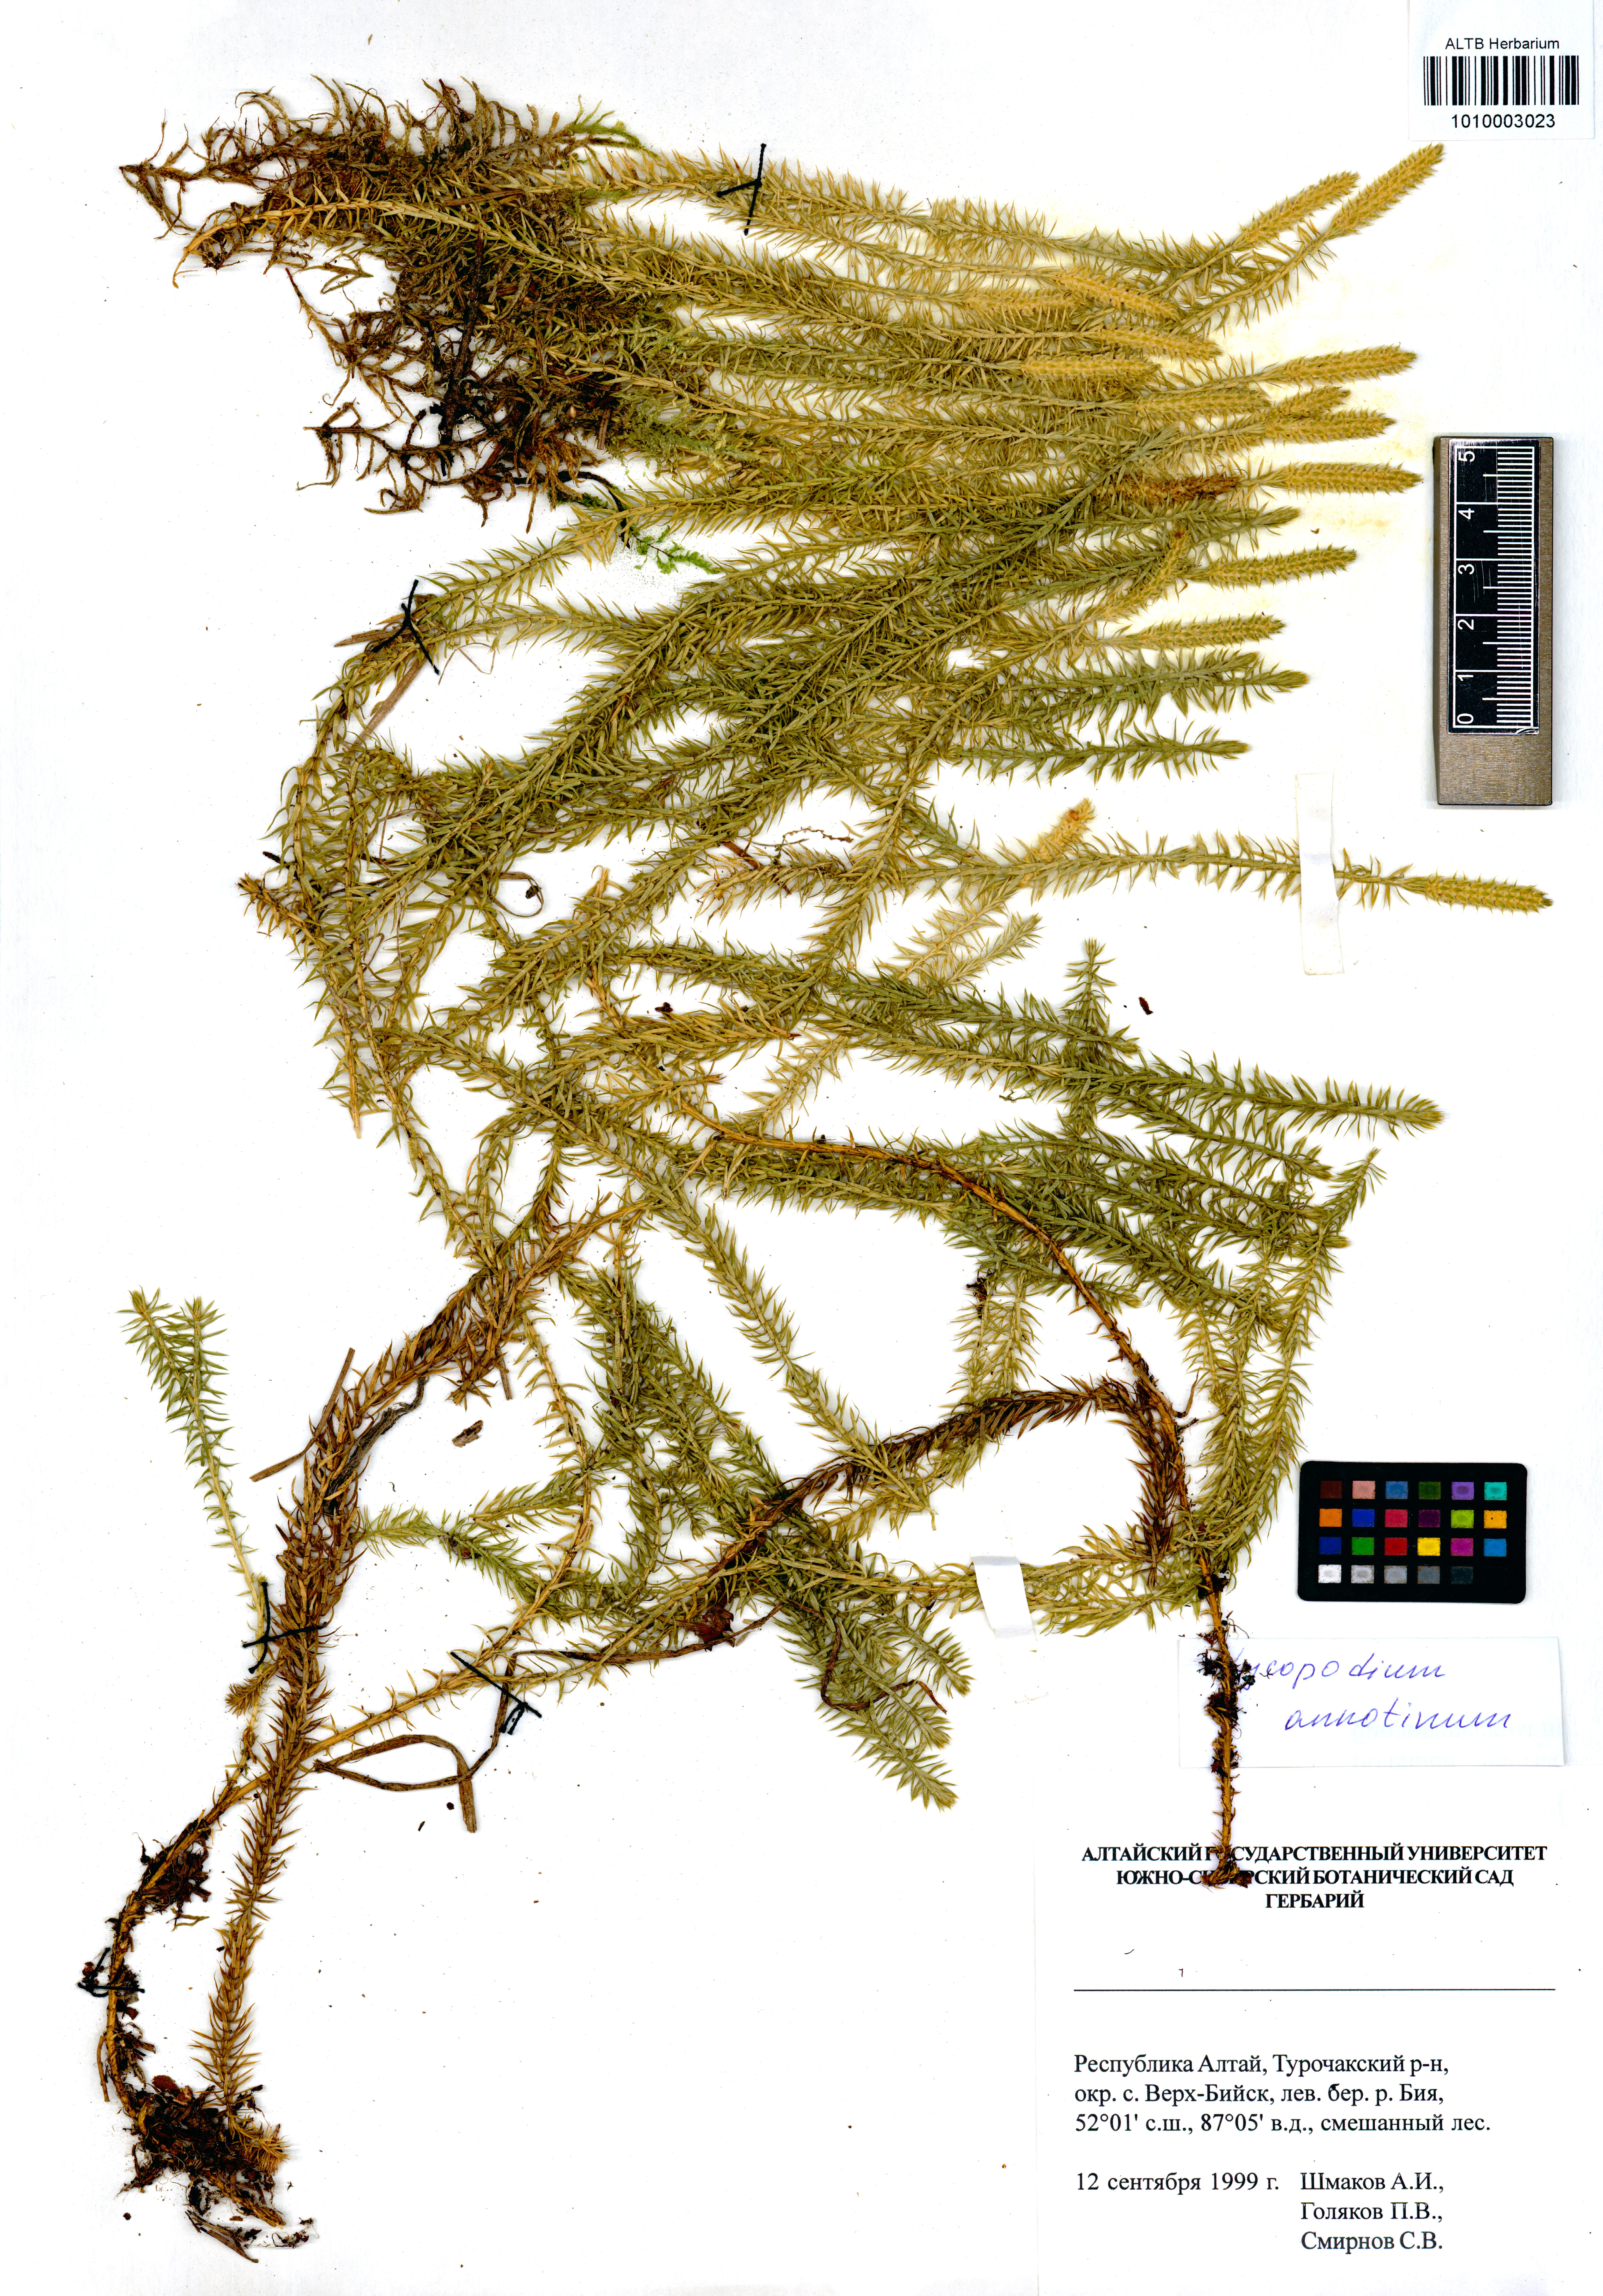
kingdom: Plantae
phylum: Tracheophyta
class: Lycopodiopsida
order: Lycopodiales
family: Lycopodiaceae
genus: Spinulum
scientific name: Spinulum annotinum
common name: Interrupted club-moss
